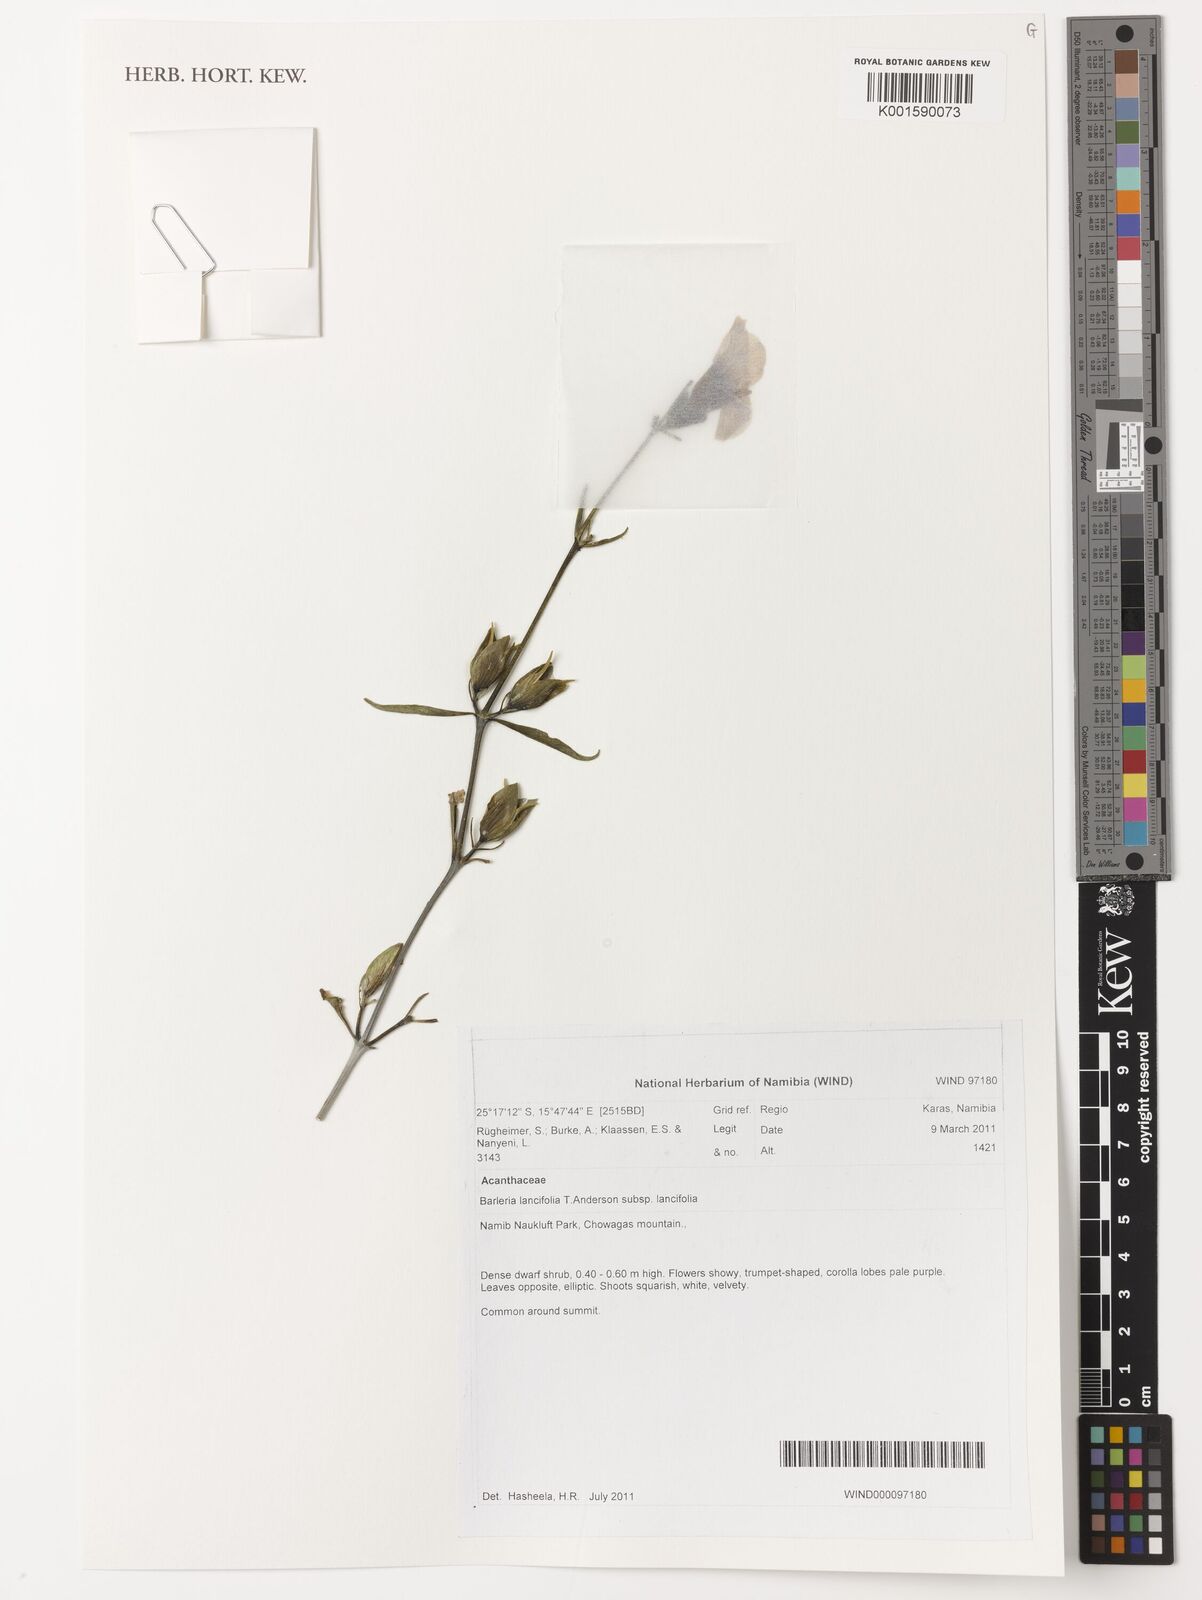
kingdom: Plantae
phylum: Tracheophyta
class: Magnoliopsida
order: Lamiales
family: Acanthaceae
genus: Barleria
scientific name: Barleria lancifolia
